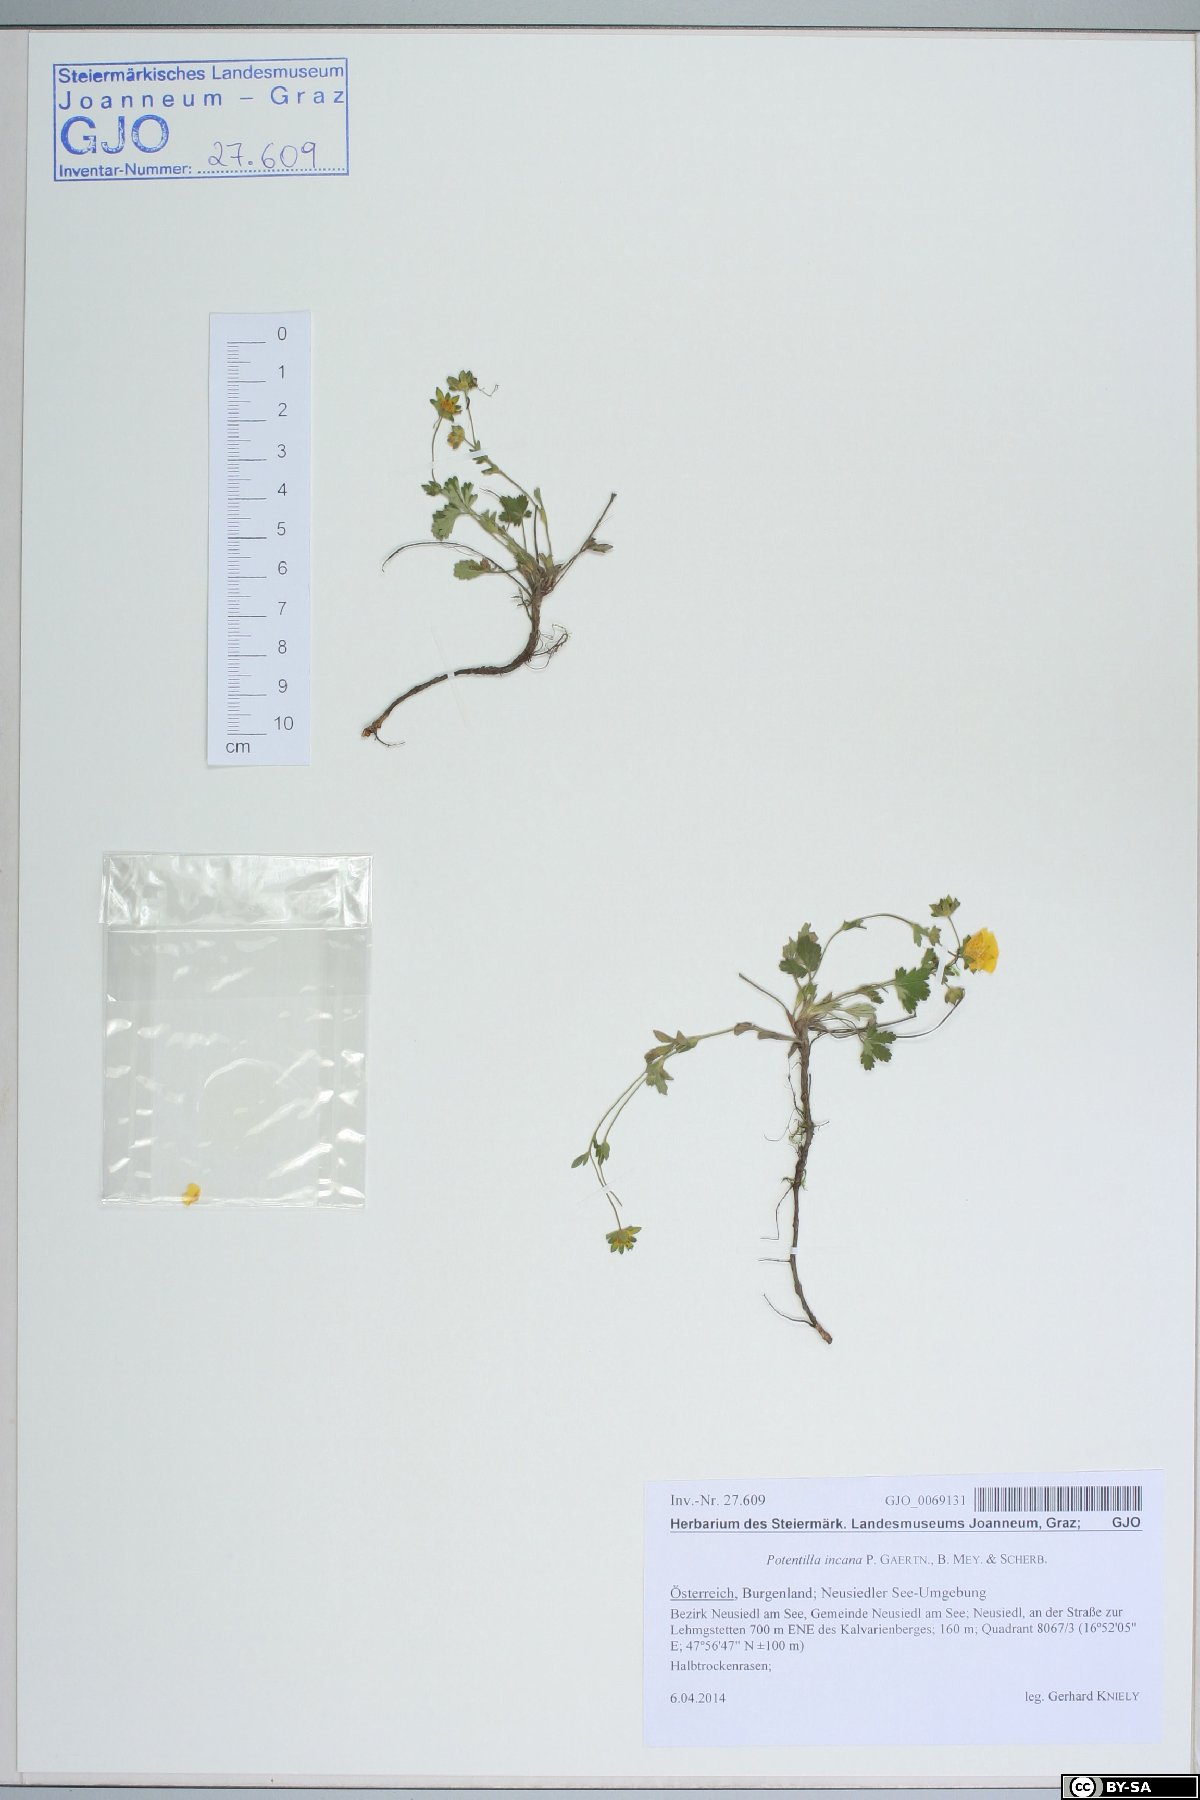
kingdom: Plantae
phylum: Tracheophyta
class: Magnoliopsida
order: Rosales
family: Rosaceae
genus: Potentilla
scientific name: Potentilla cinerea
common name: Ashy cinquefoil
